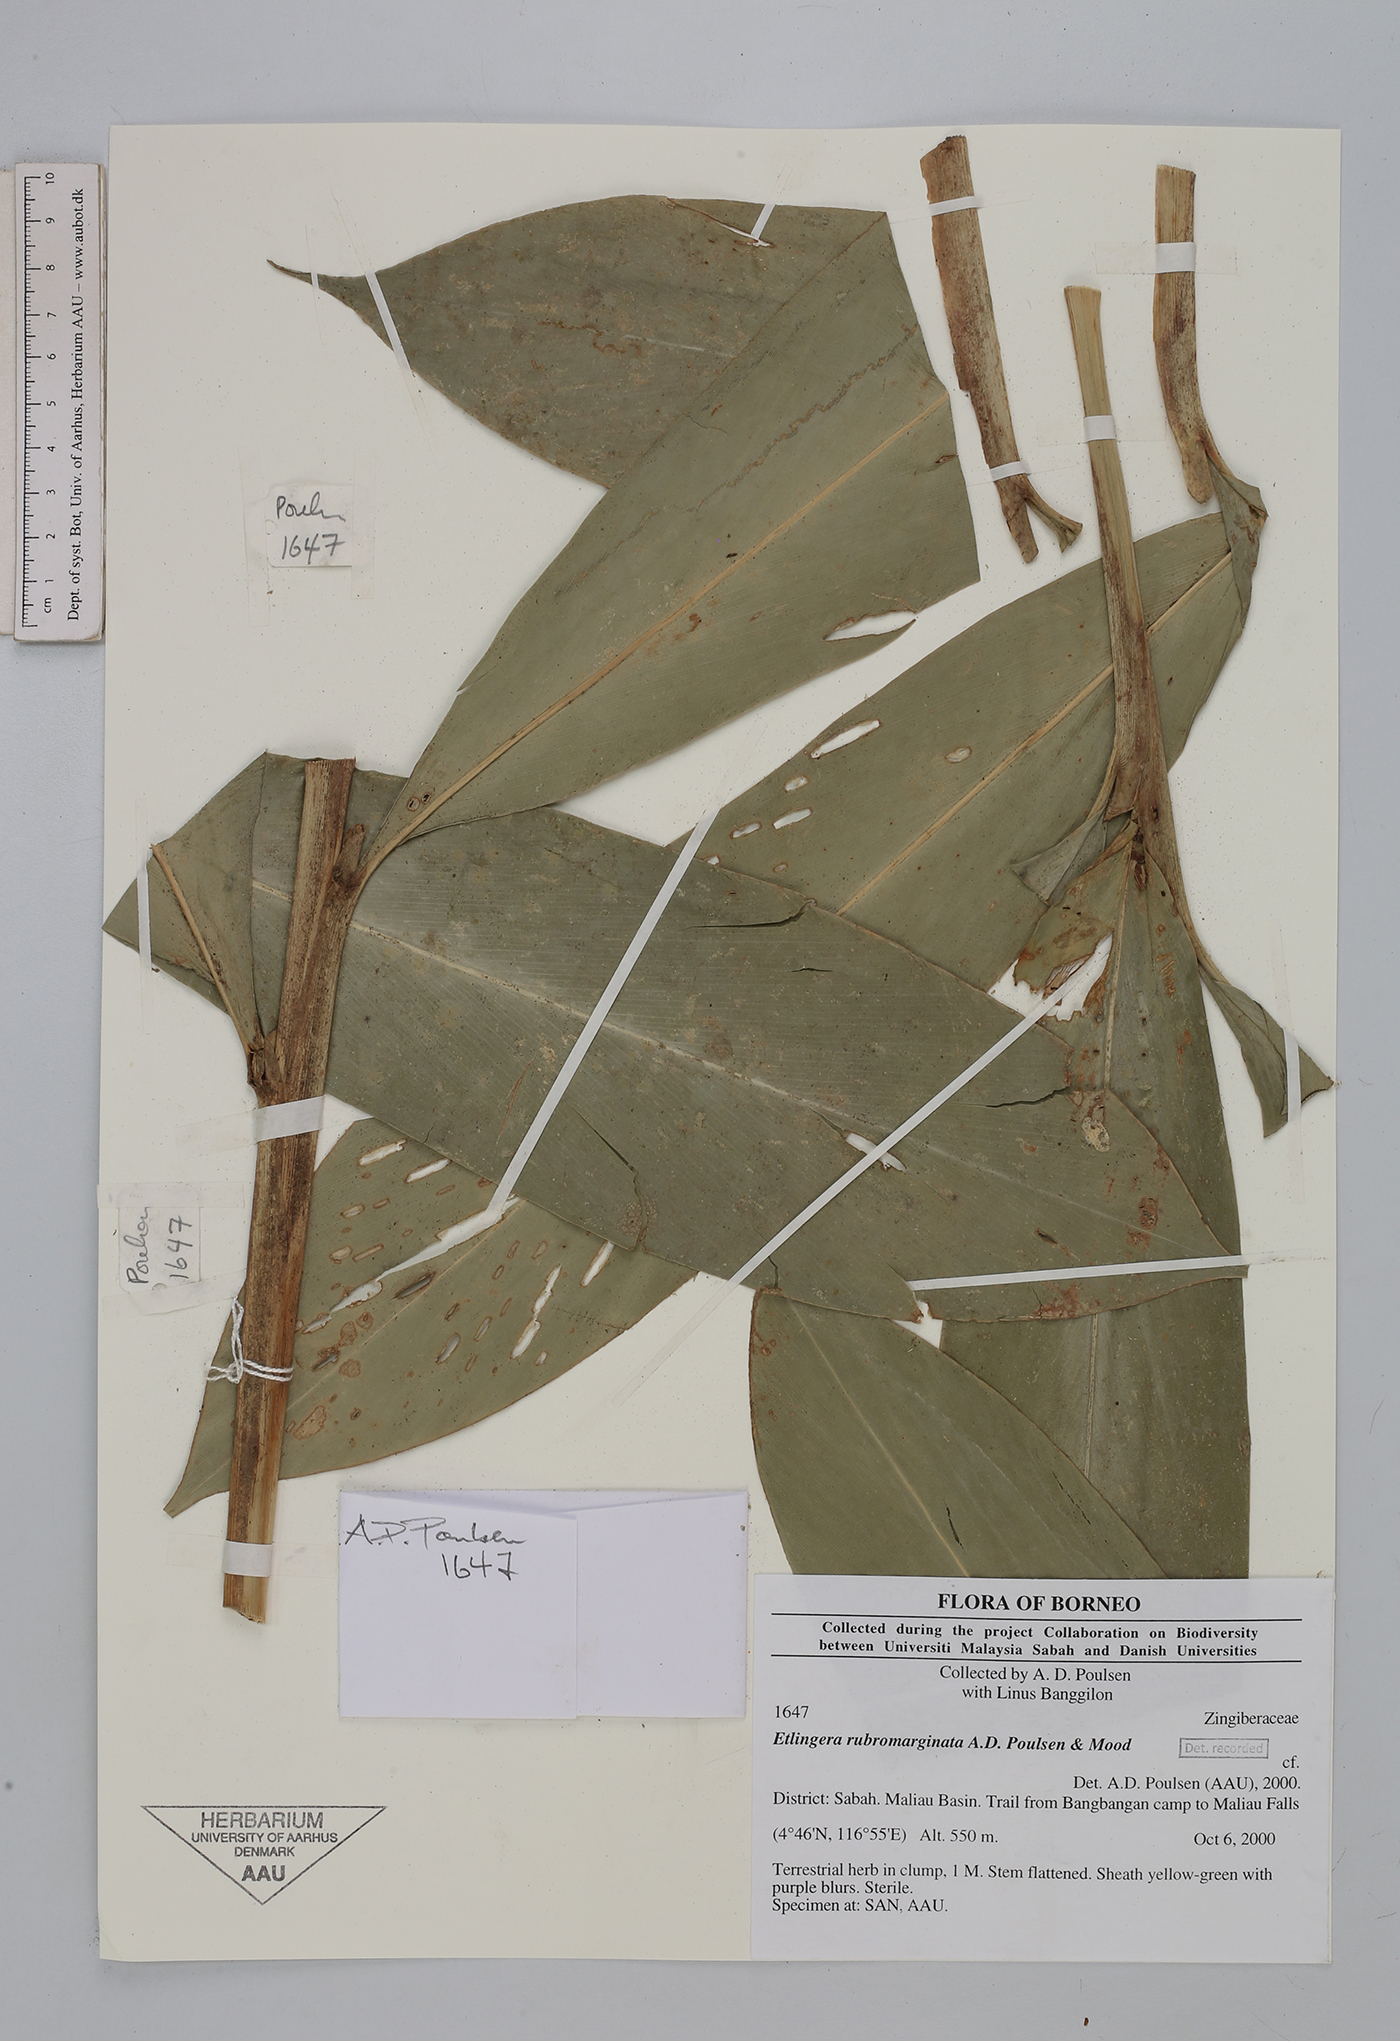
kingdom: Plantae
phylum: Tracheophyta
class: Liliopsida
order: Zingiberales
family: Zingiberaceae
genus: Etlingera
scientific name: Etlingera rubromarginata
